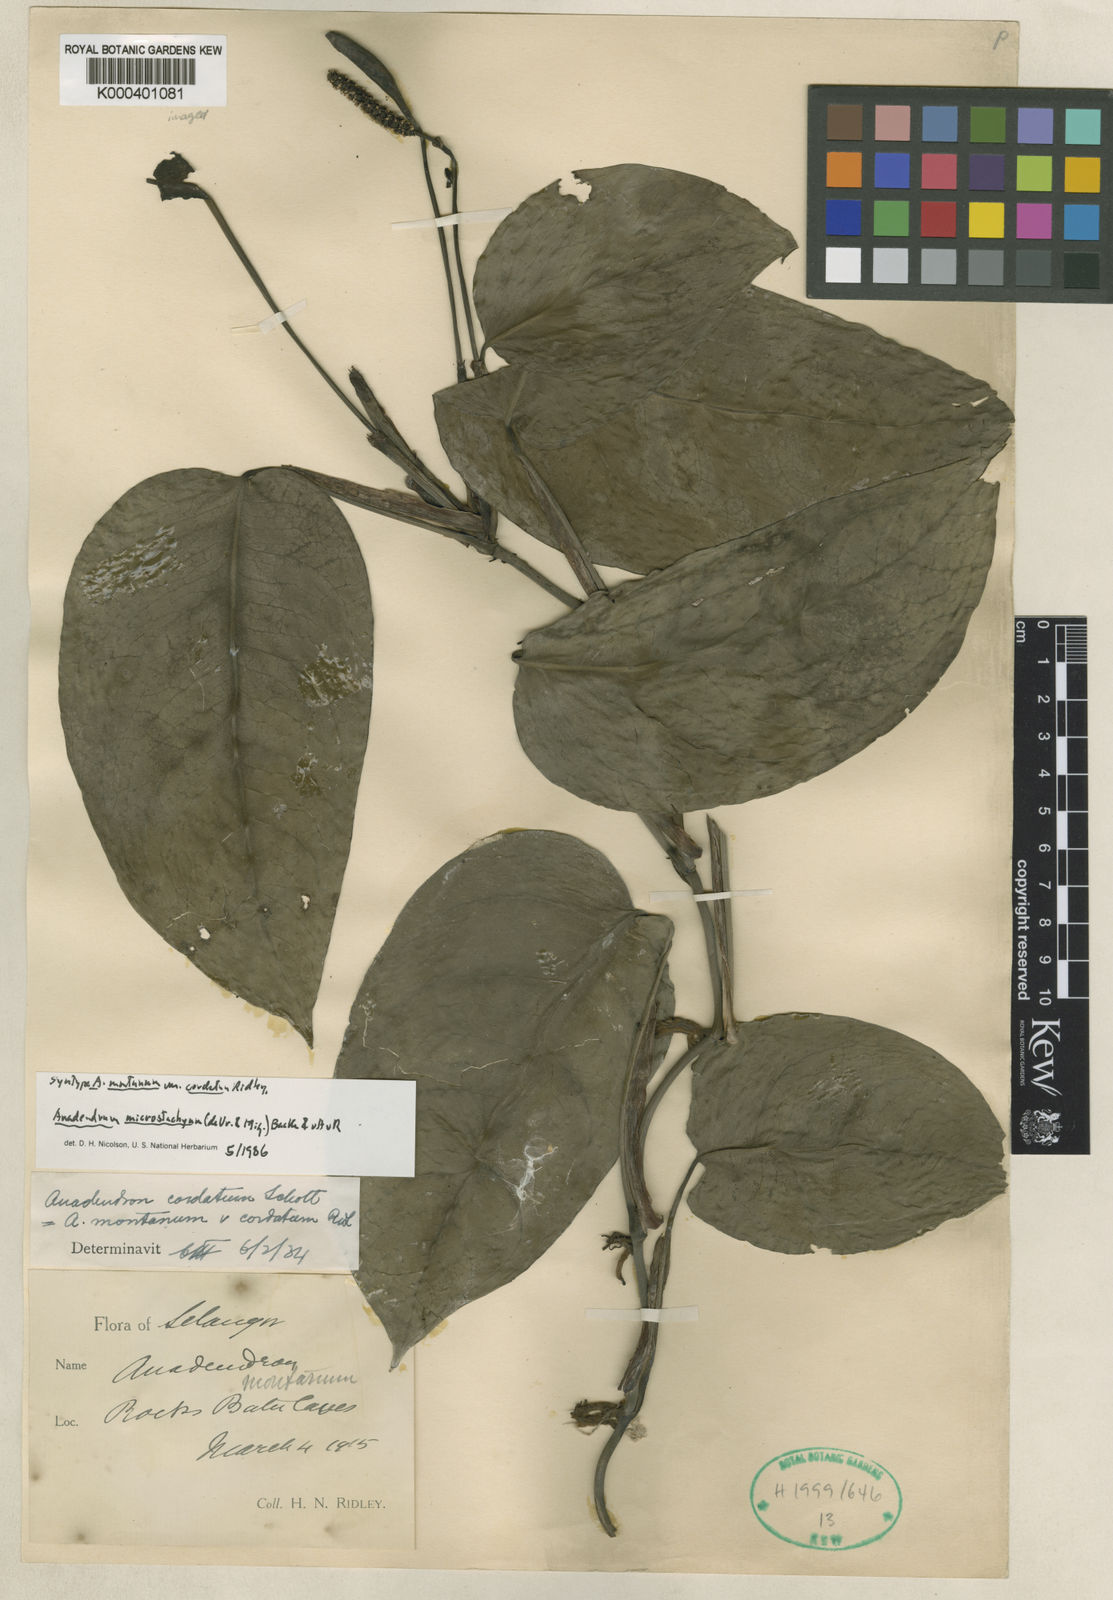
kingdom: Plantae
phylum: Tracheophyta
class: Liliopsida
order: Alismatales
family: Araceae
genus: Anadendrum
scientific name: Anadendrum microstachyum
